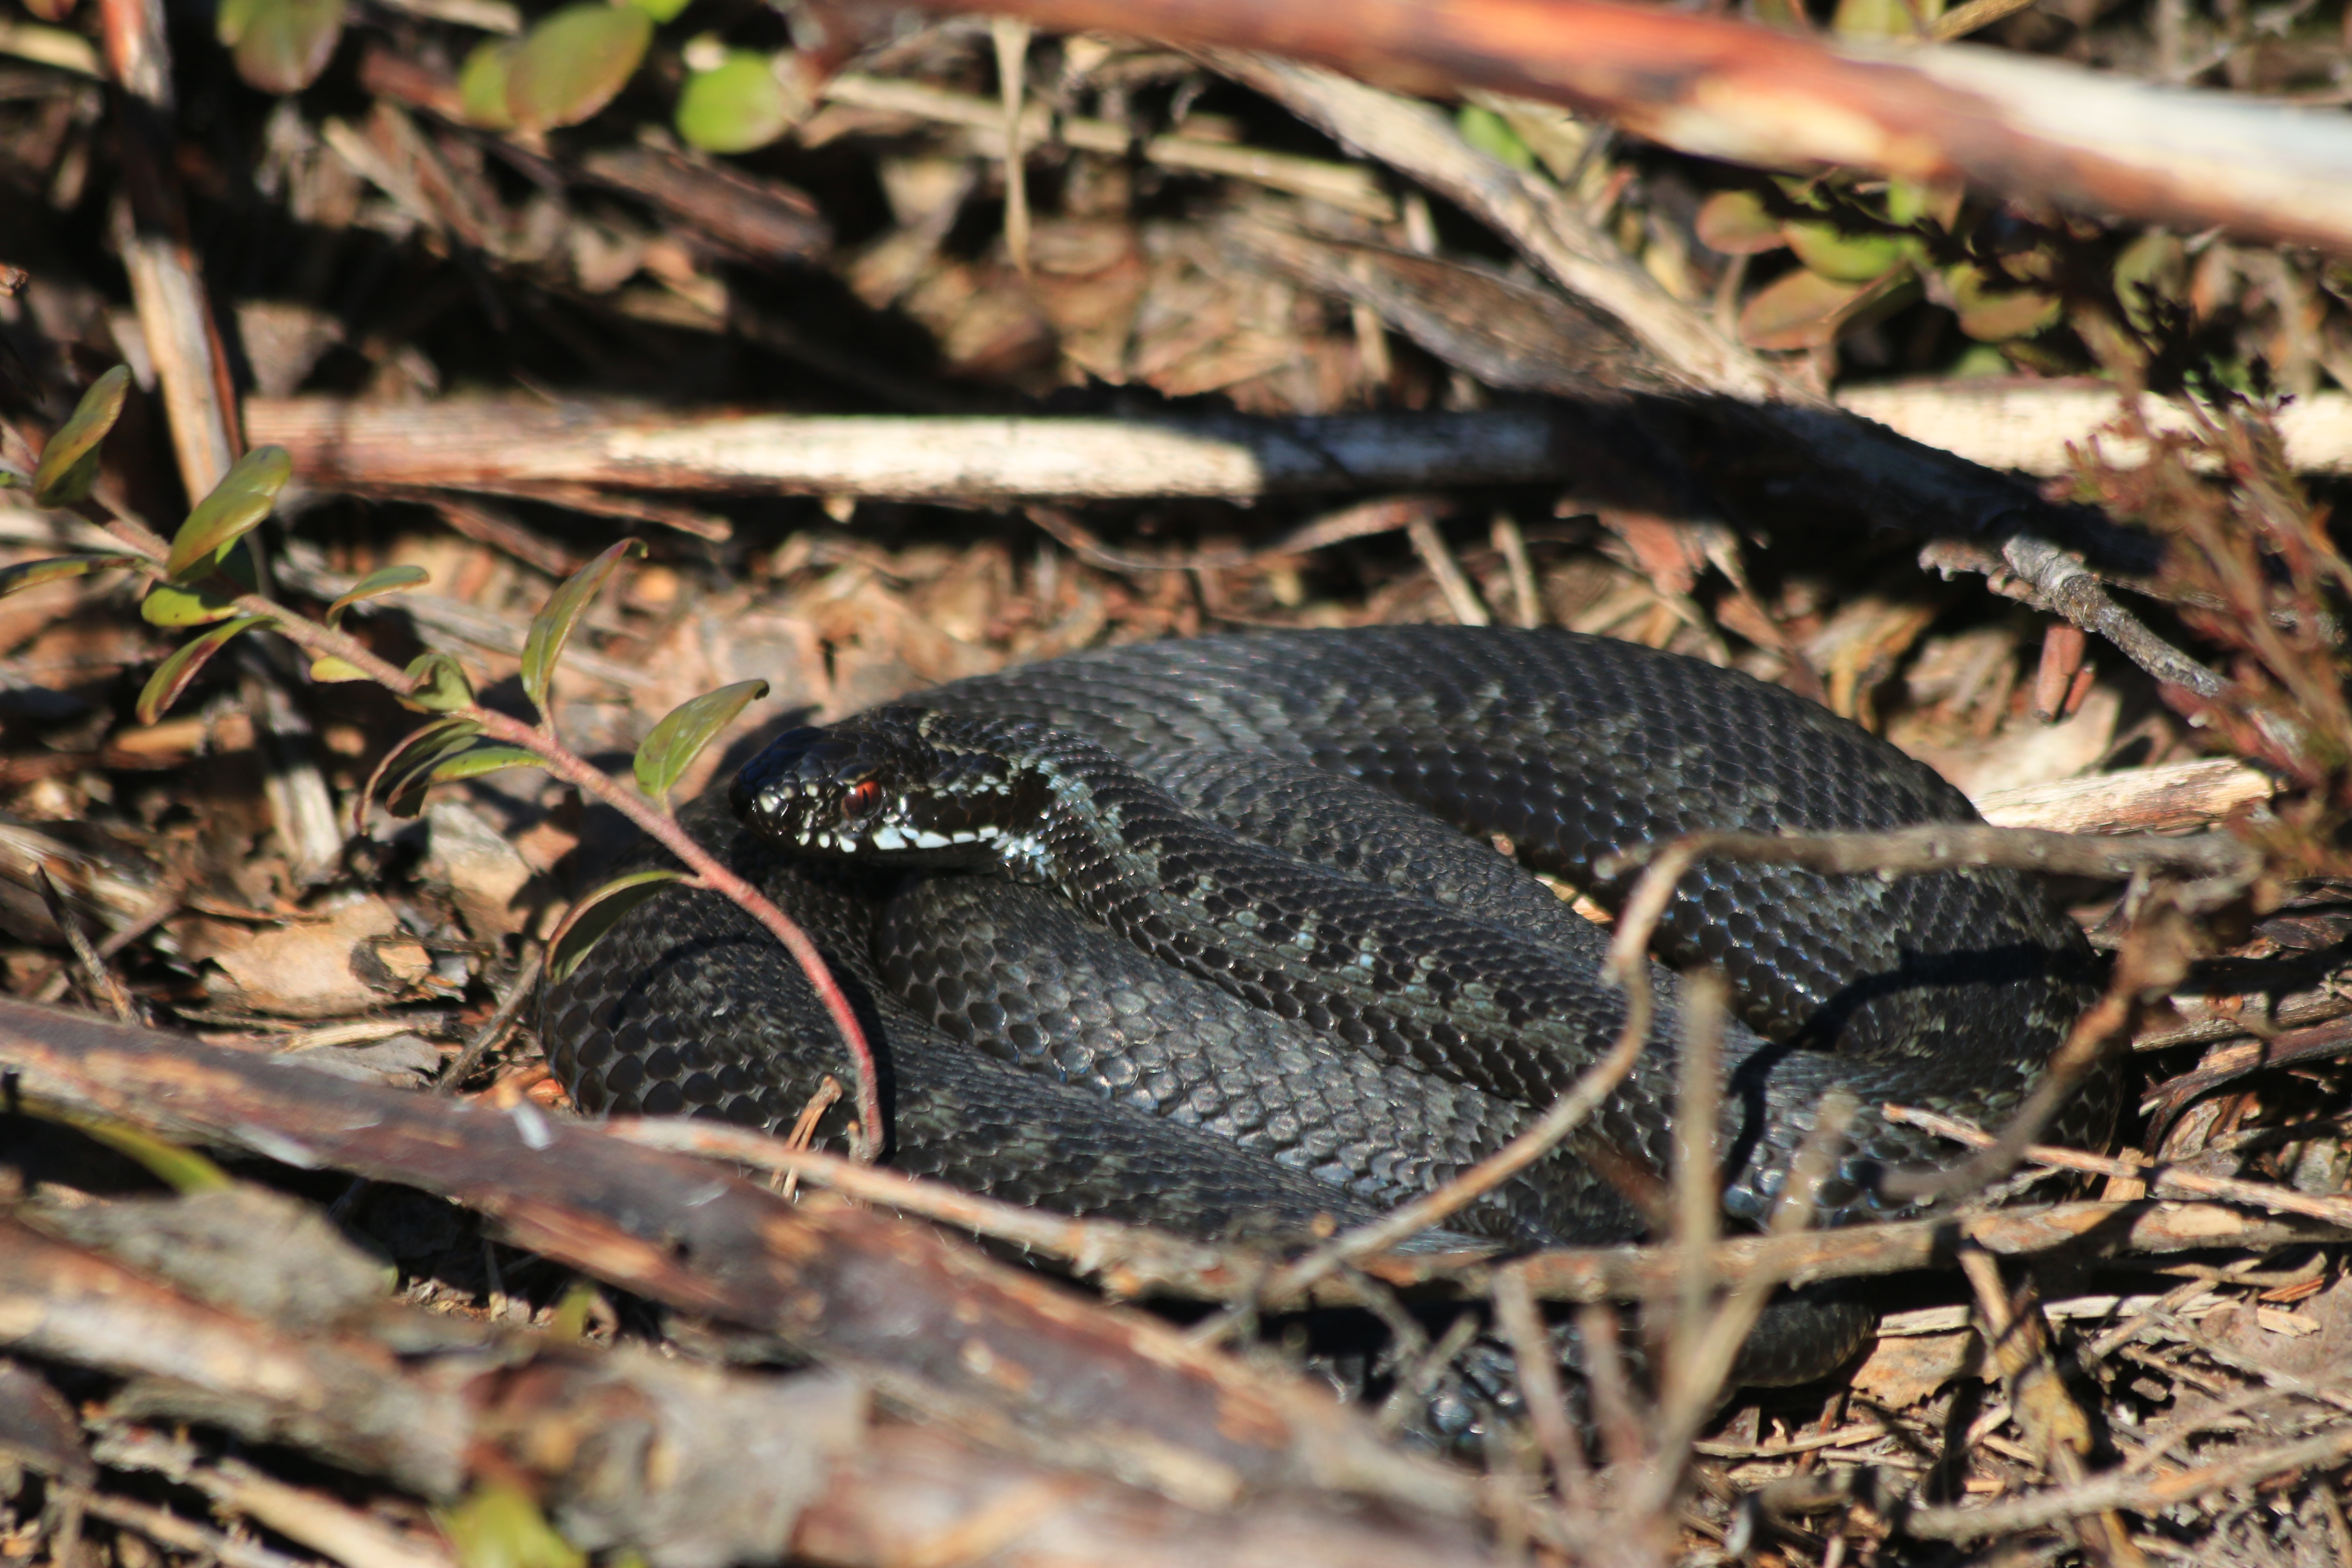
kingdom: Animalia
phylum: Chordata
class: Squamata
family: Viperidae
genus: Vipera
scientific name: Vipera berus
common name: Adder
